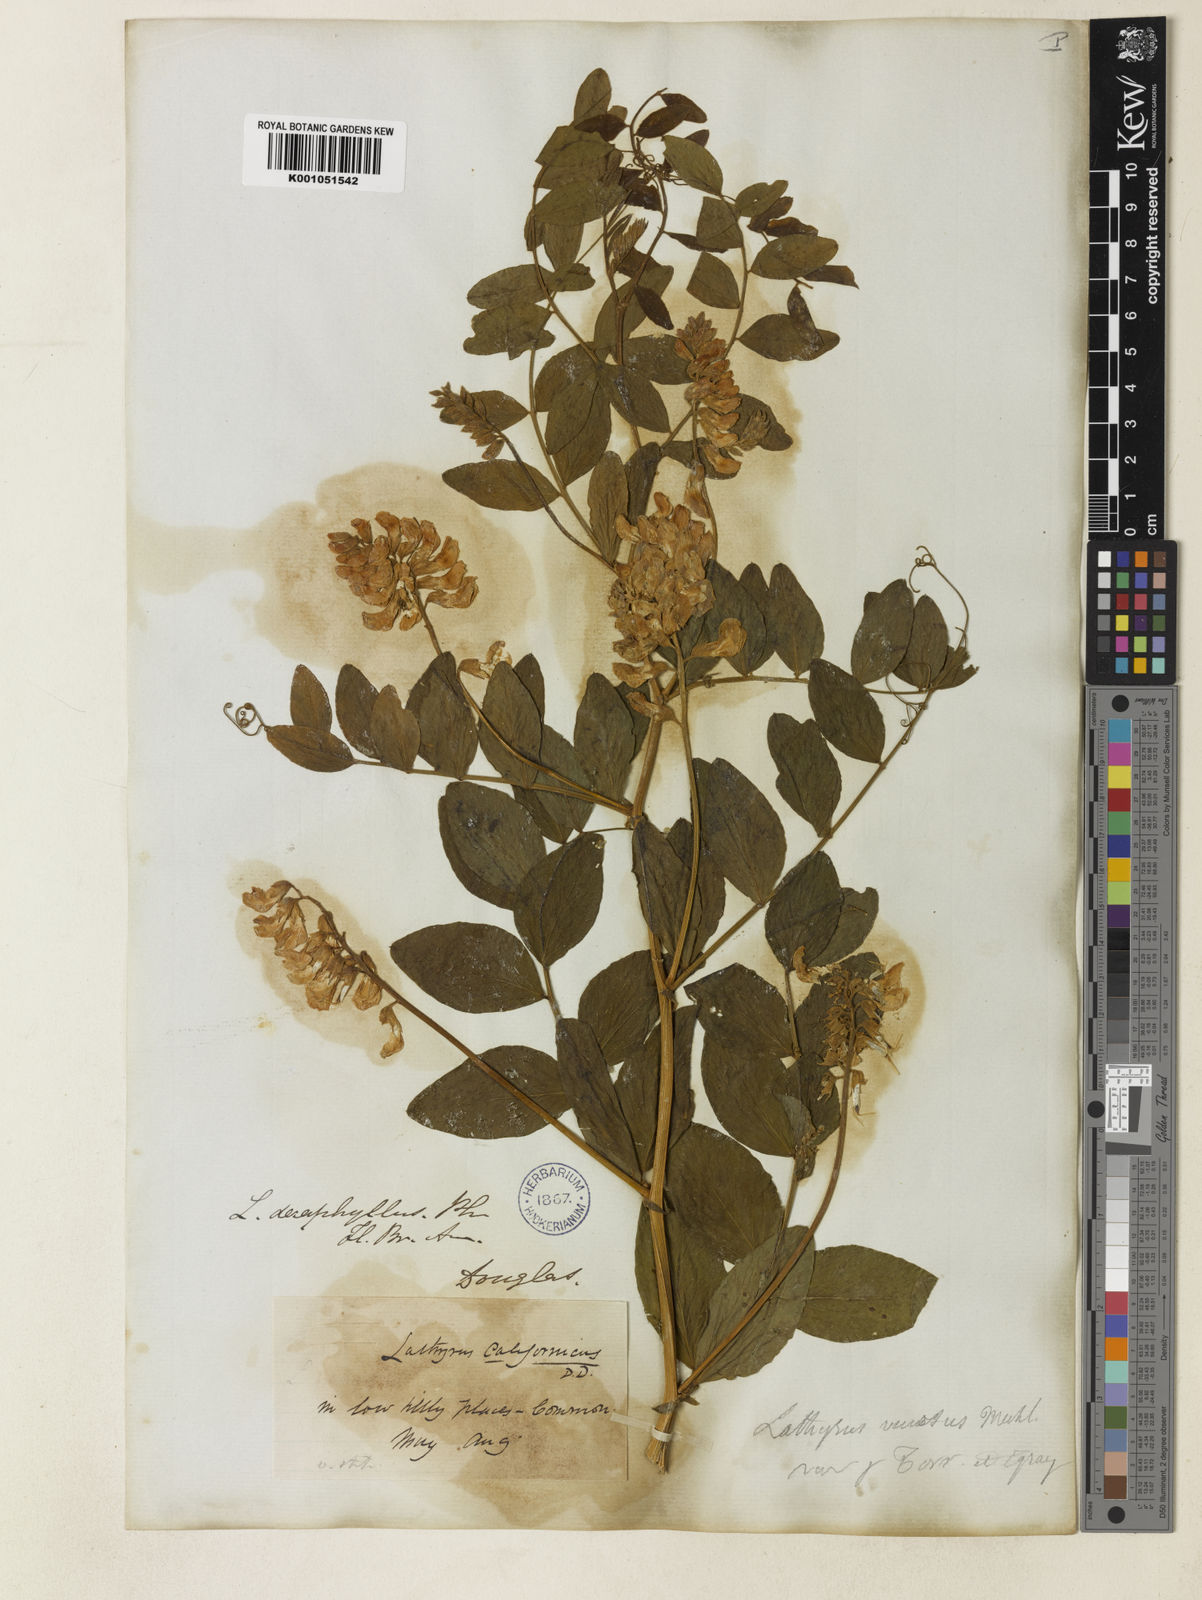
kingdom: Plantae
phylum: Tracheophyta
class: Magnoliopsida
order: Fabales
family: Fabaceae
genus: Lathyrus
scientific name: Lathyrus venosus
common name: Forest-pea
